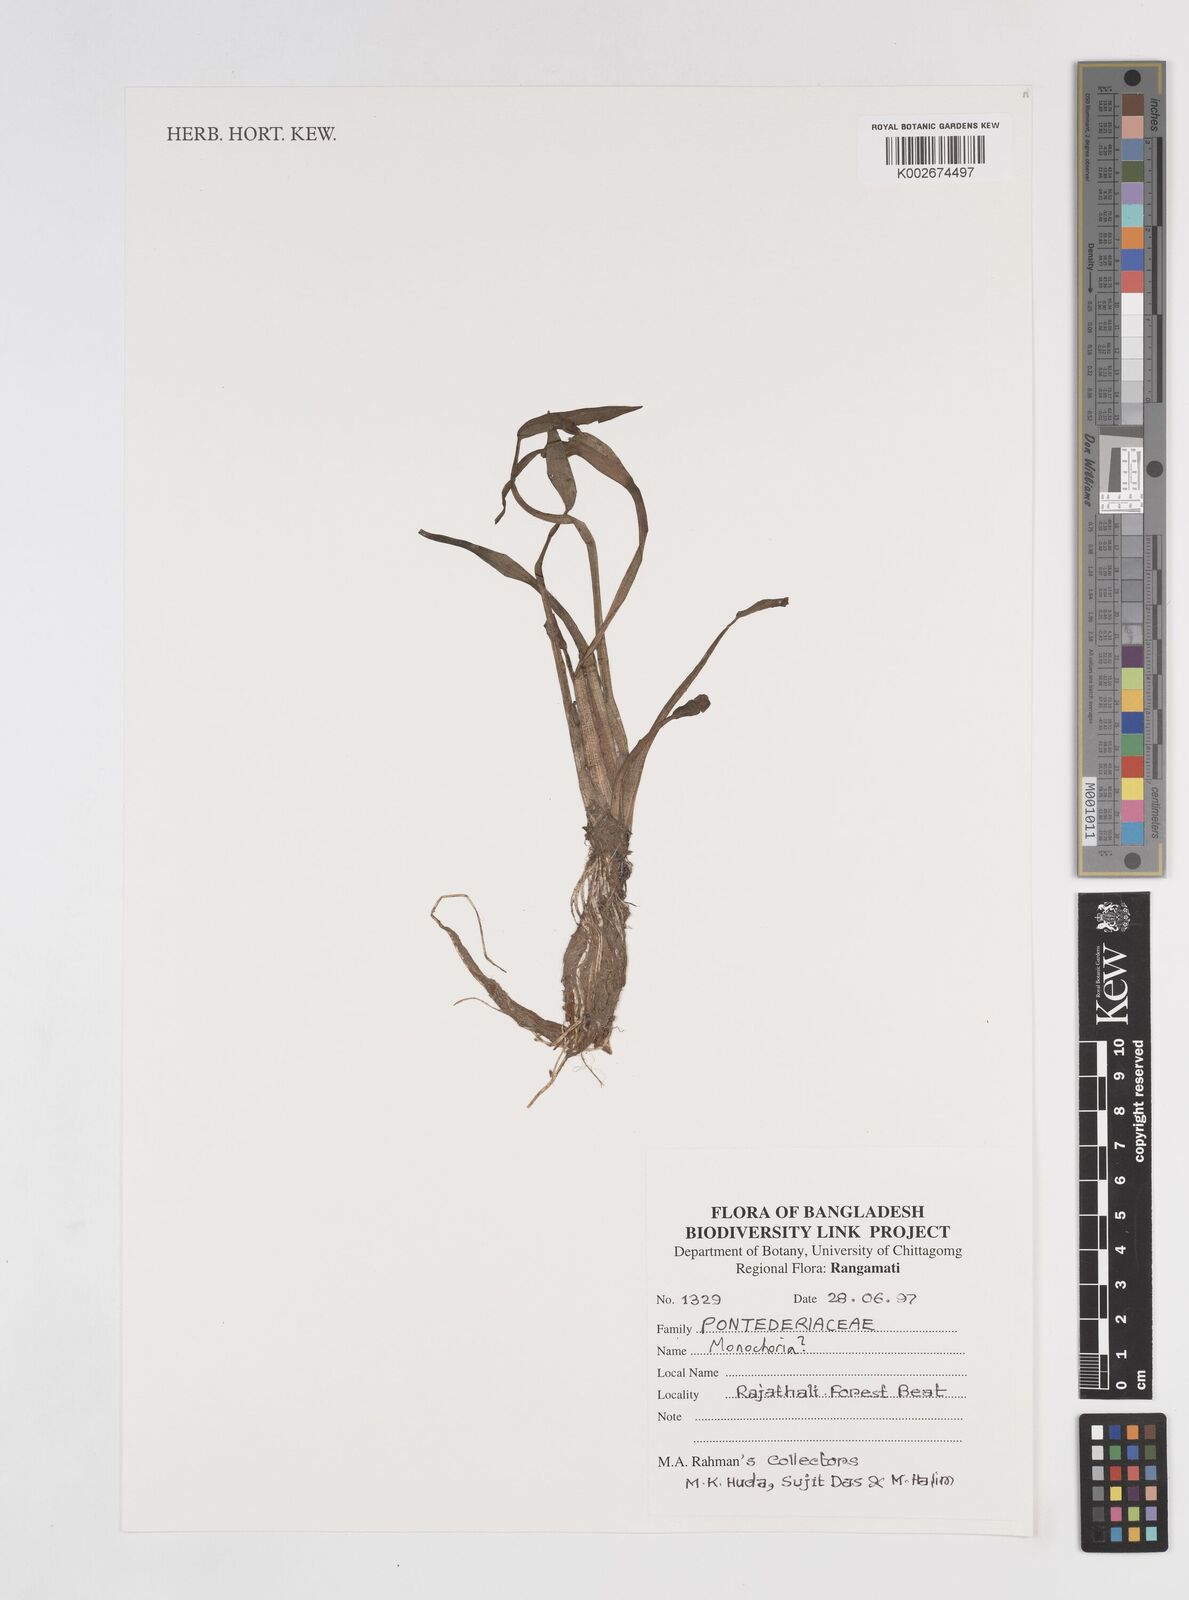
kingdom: Plantae
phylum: Tracheophyta
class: Liliopsida
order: Commelinales
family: Pontederiaceae
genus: Monochoria
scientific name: Monochoria
